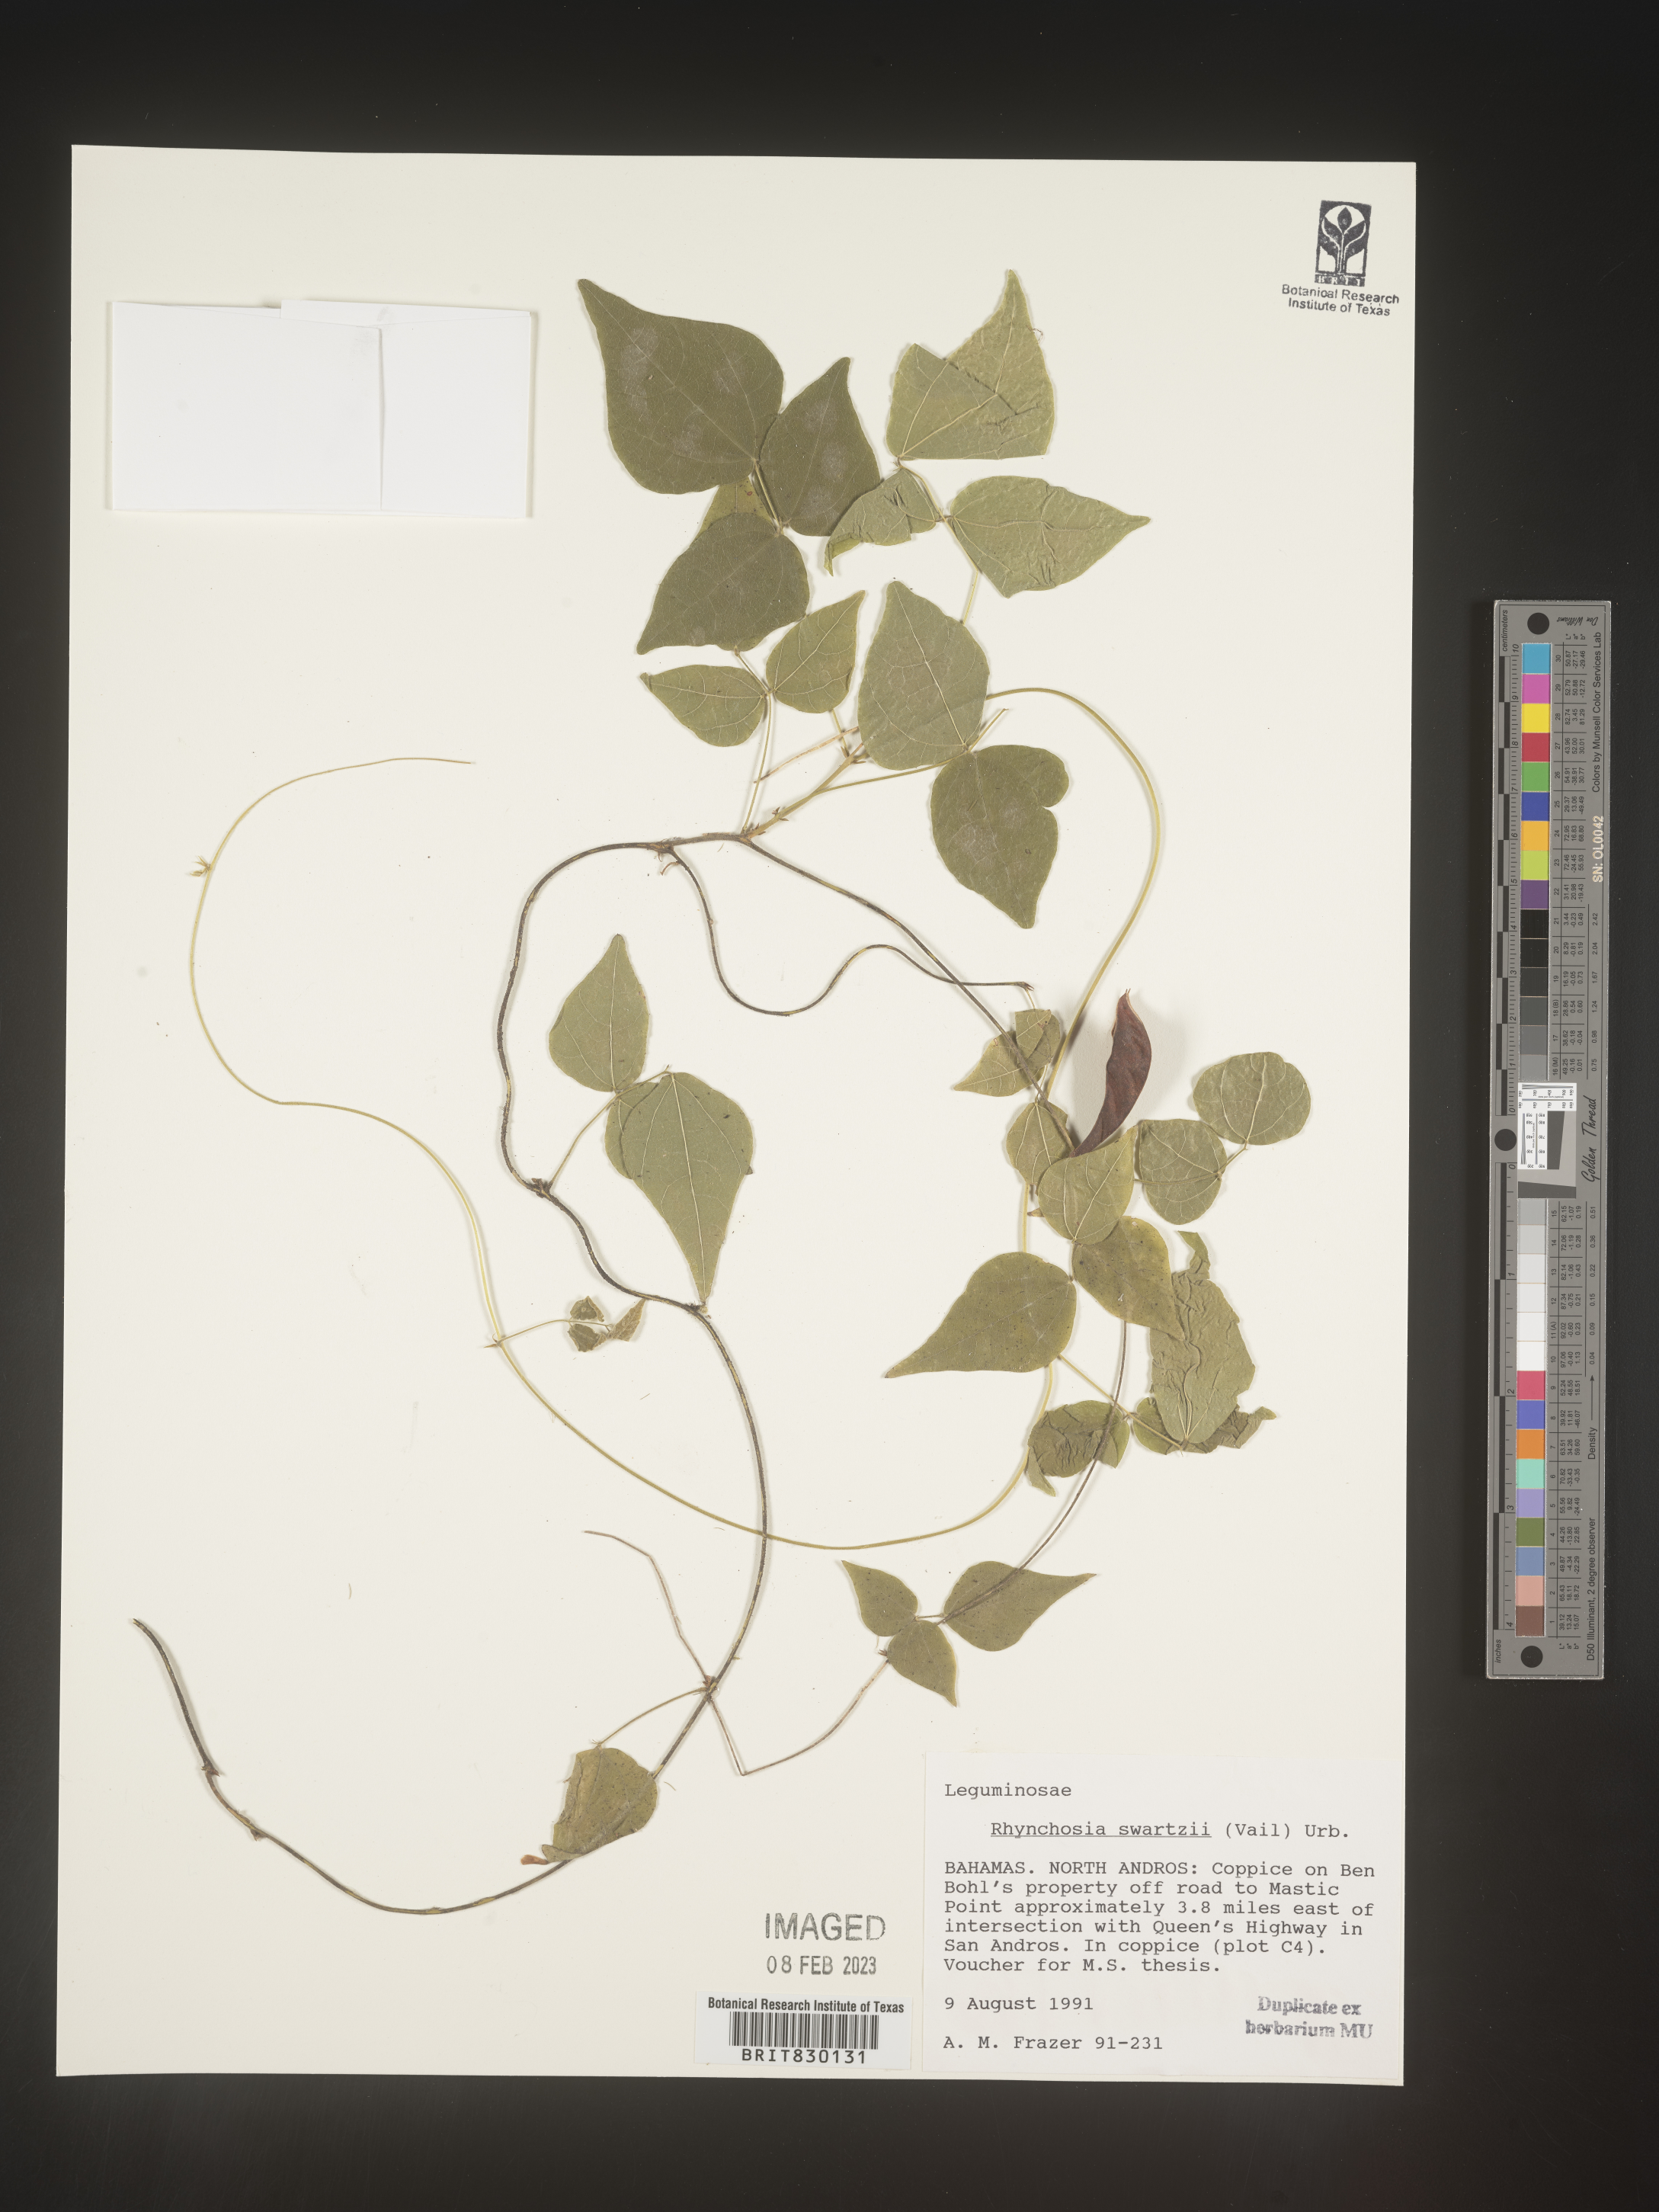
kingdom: Plantae
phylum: Tracheophyta
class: Magnoliopsida
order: Fabales
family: Fabaceae
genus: Rhynchosia
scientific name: Rhynchosia
